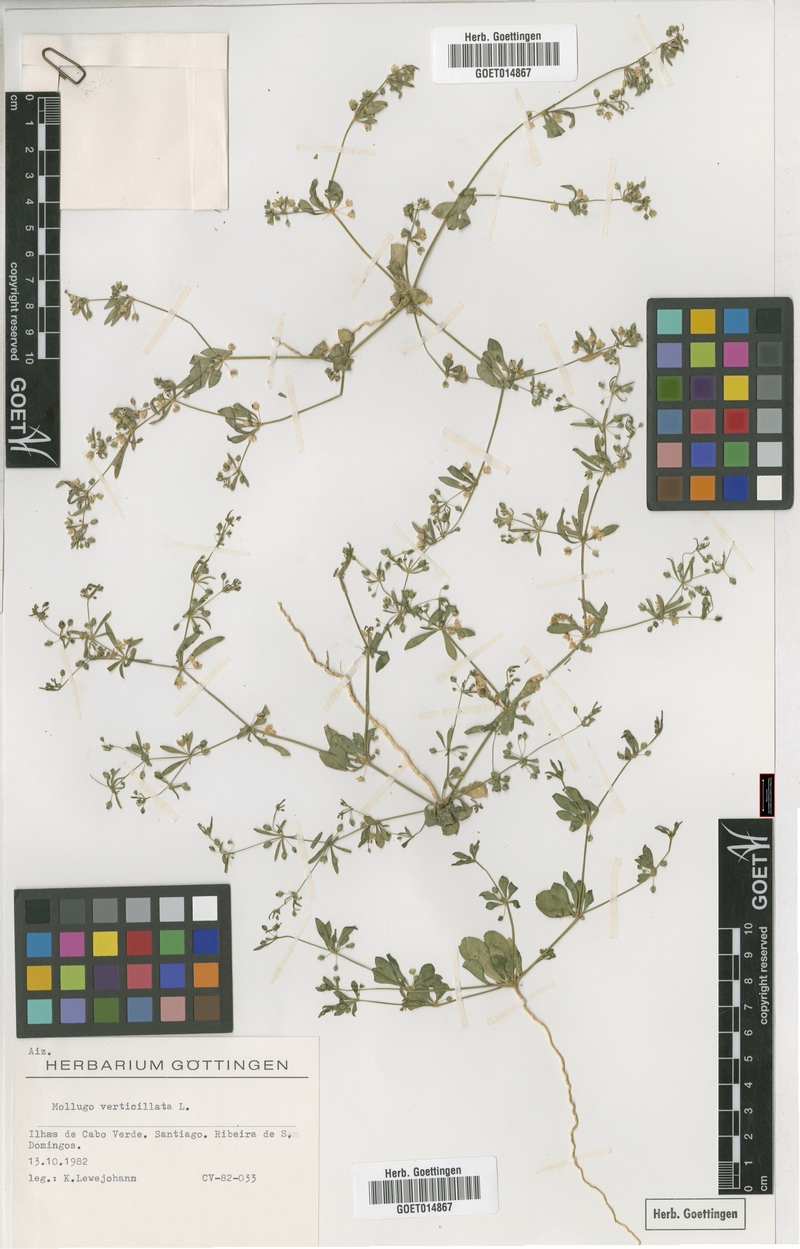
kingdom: Plantae
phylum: Tracheophyta
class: Magnoliopsida
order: Caryophyllales
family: Molluginaceae
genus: Mollugo
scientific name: Mollugo verticillata
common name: Green carpetweed
